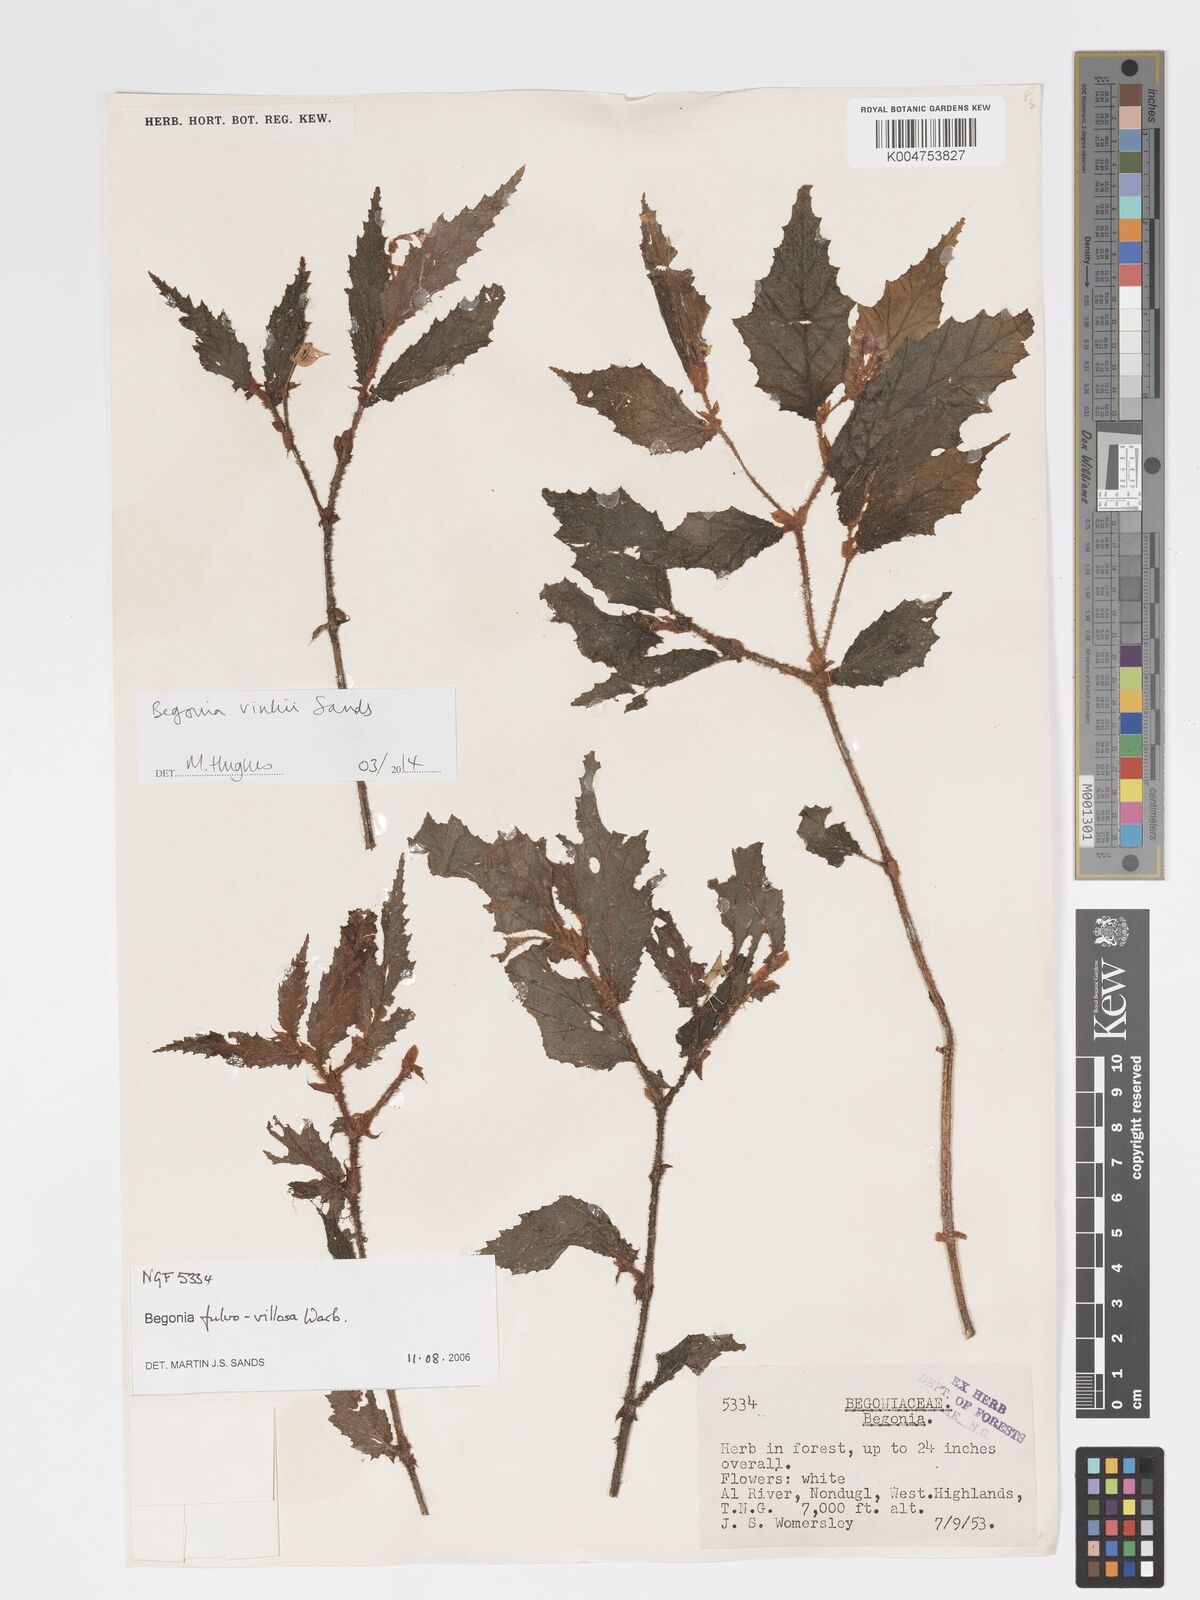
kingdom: Plantae
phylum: Tracheophyta
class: Magnoliopsida
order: Cucurbitales
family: Begoniaceae
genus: Begonia
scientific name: Begonia vinkii
